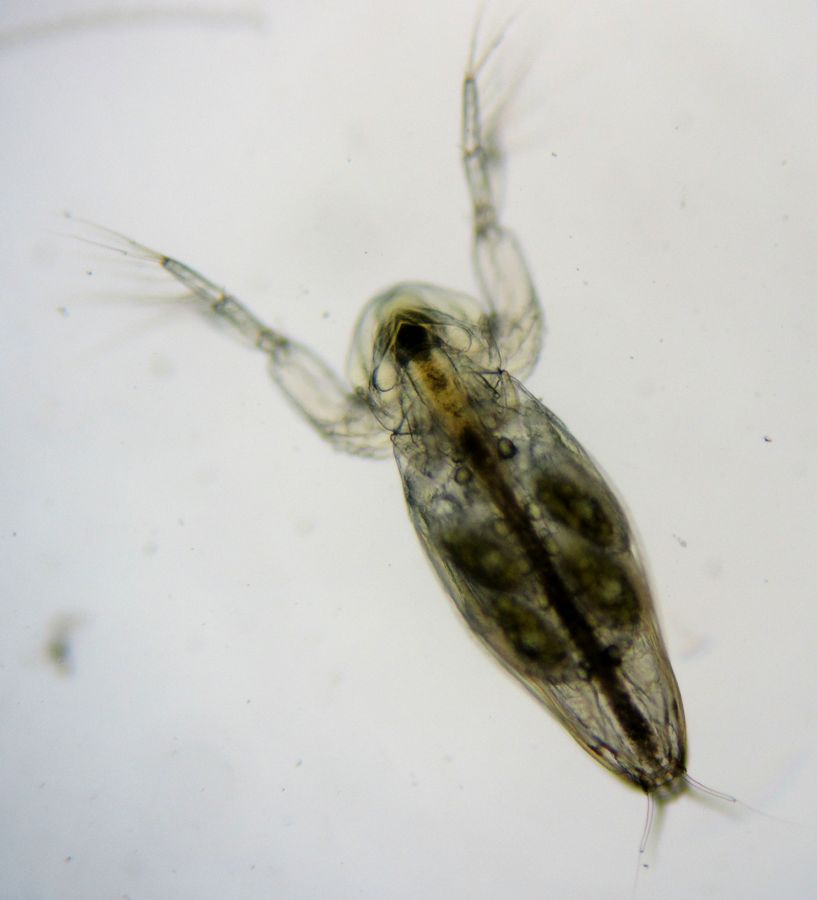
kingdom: Animalia
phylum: Arthropoda
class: Branchiopoda
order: Diplostraca
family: Sididae
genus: Sida
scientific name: Sida crystallina
